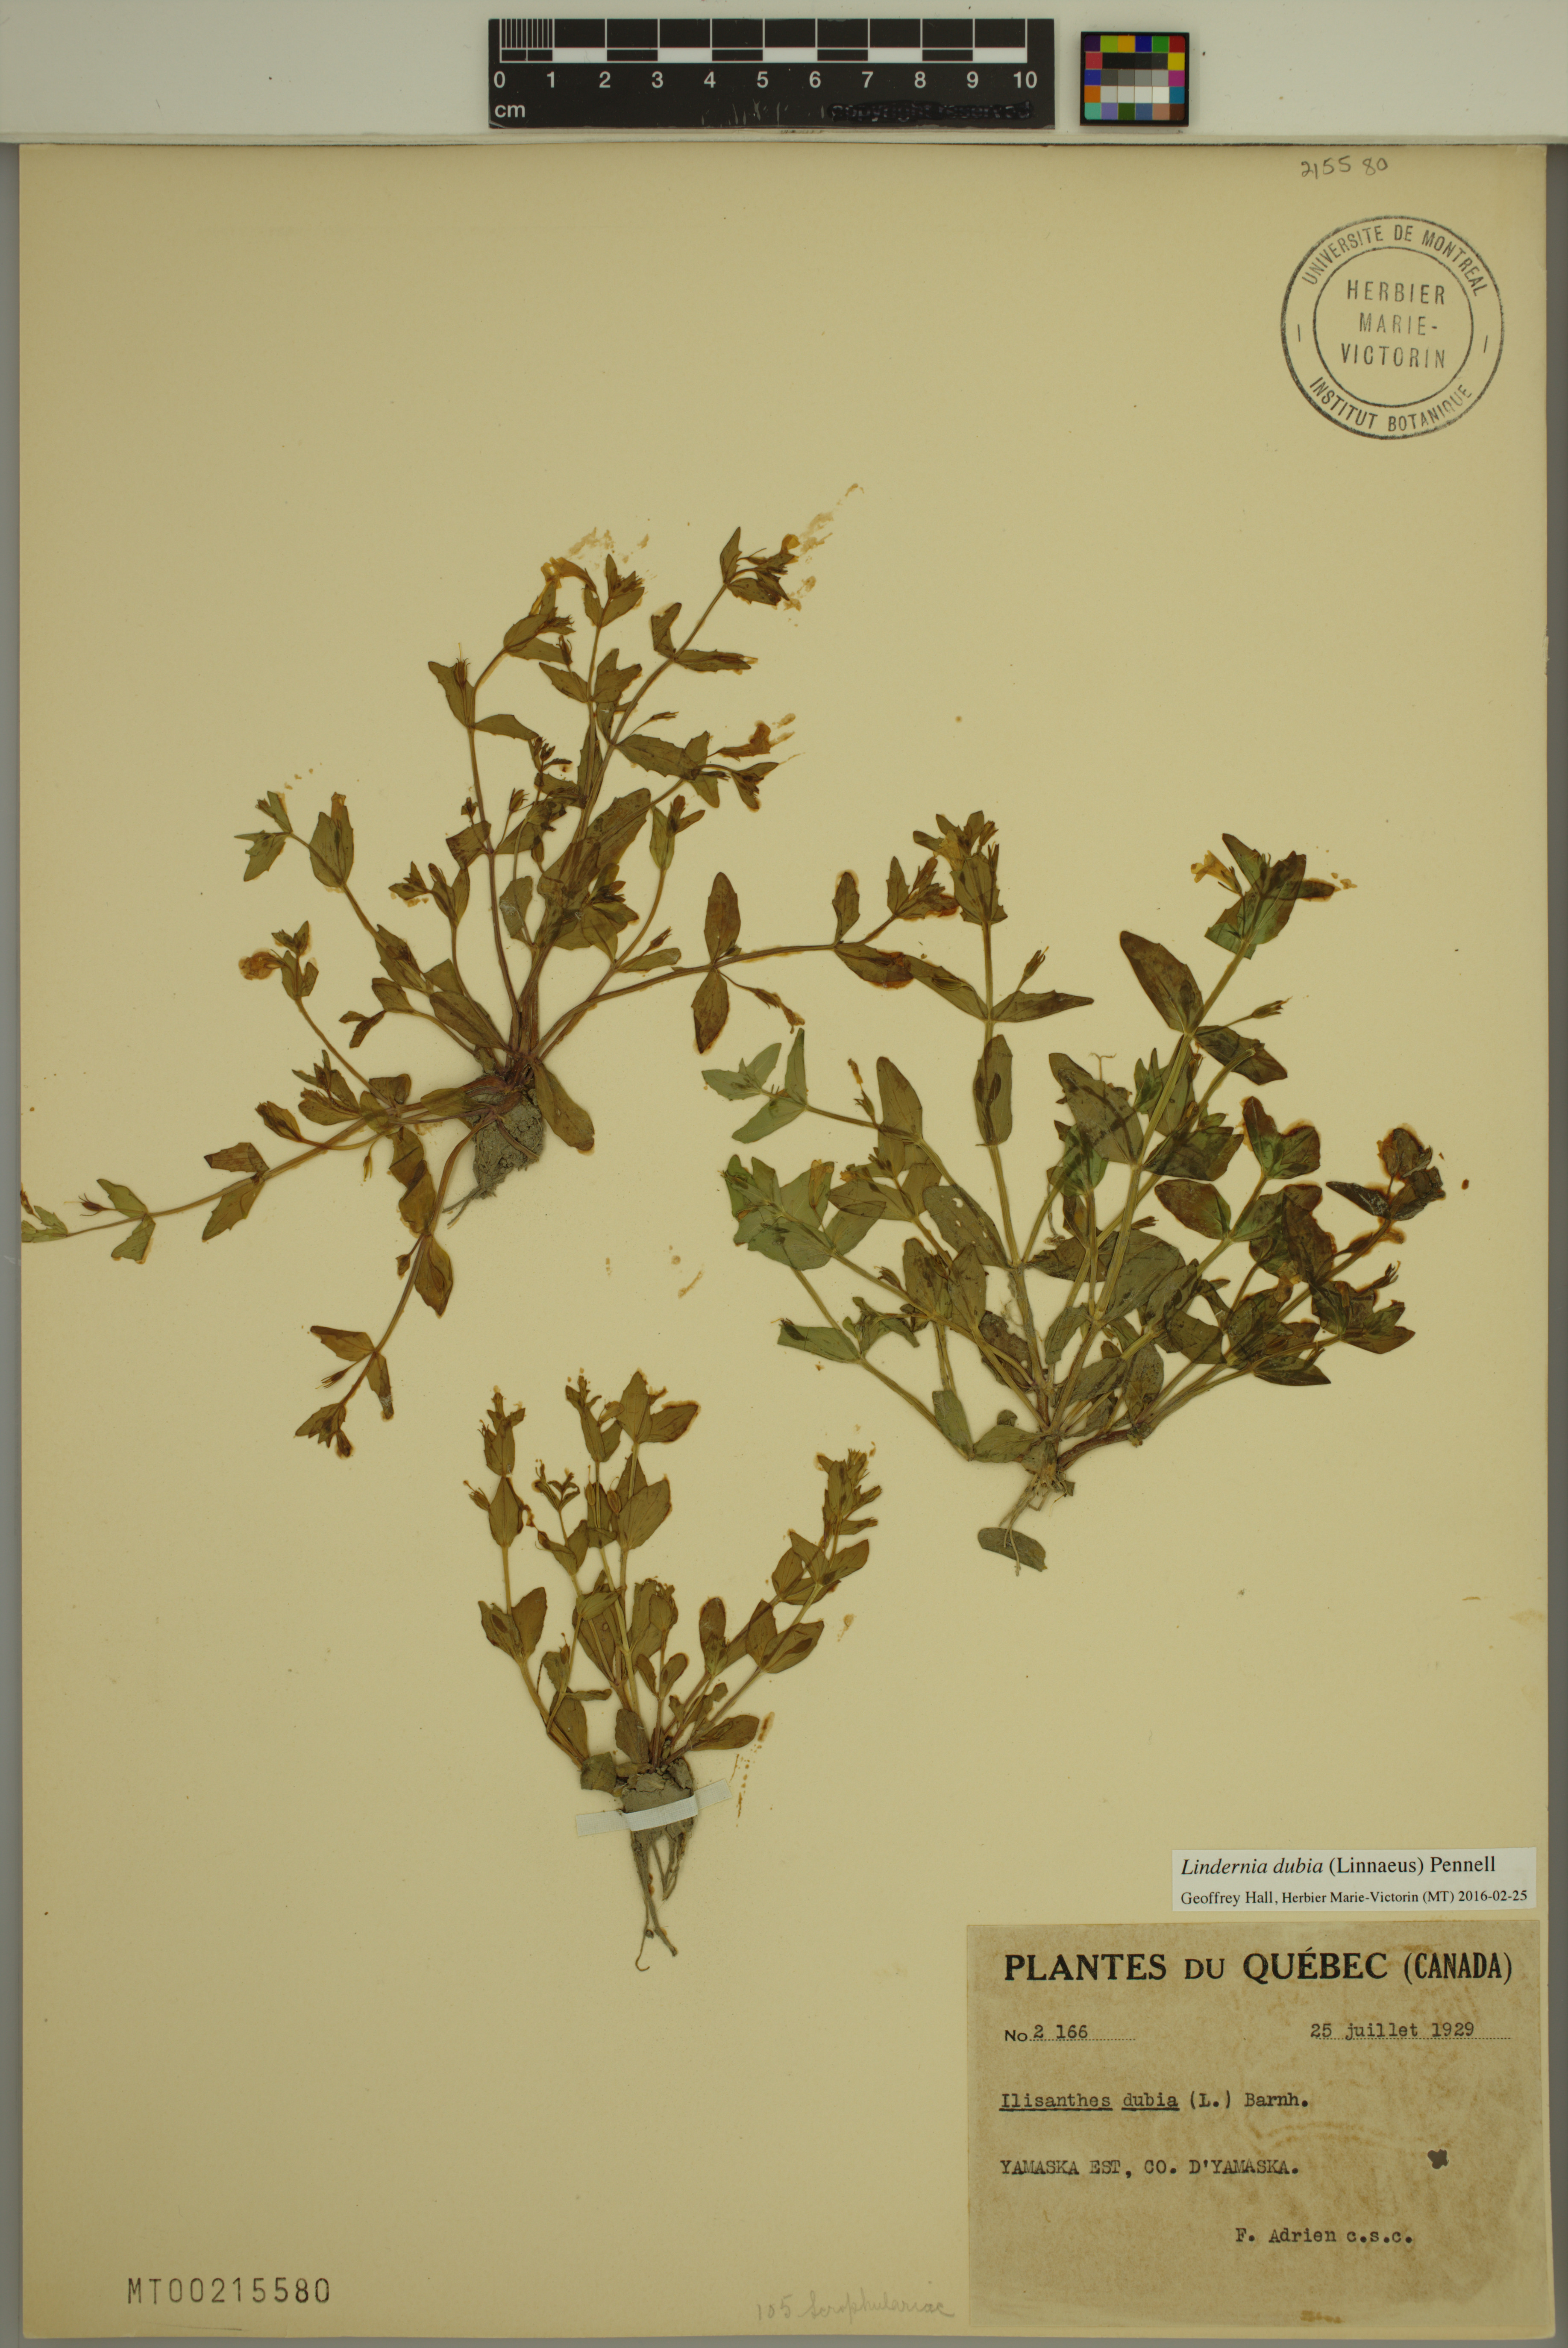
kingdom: Plantae
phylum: Tracheophyta
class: Magnoliopsida
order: Lamiales
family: Linderniaceae
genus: Lindernia
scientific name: Lindernia dubia
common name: Annual false pimpernel
